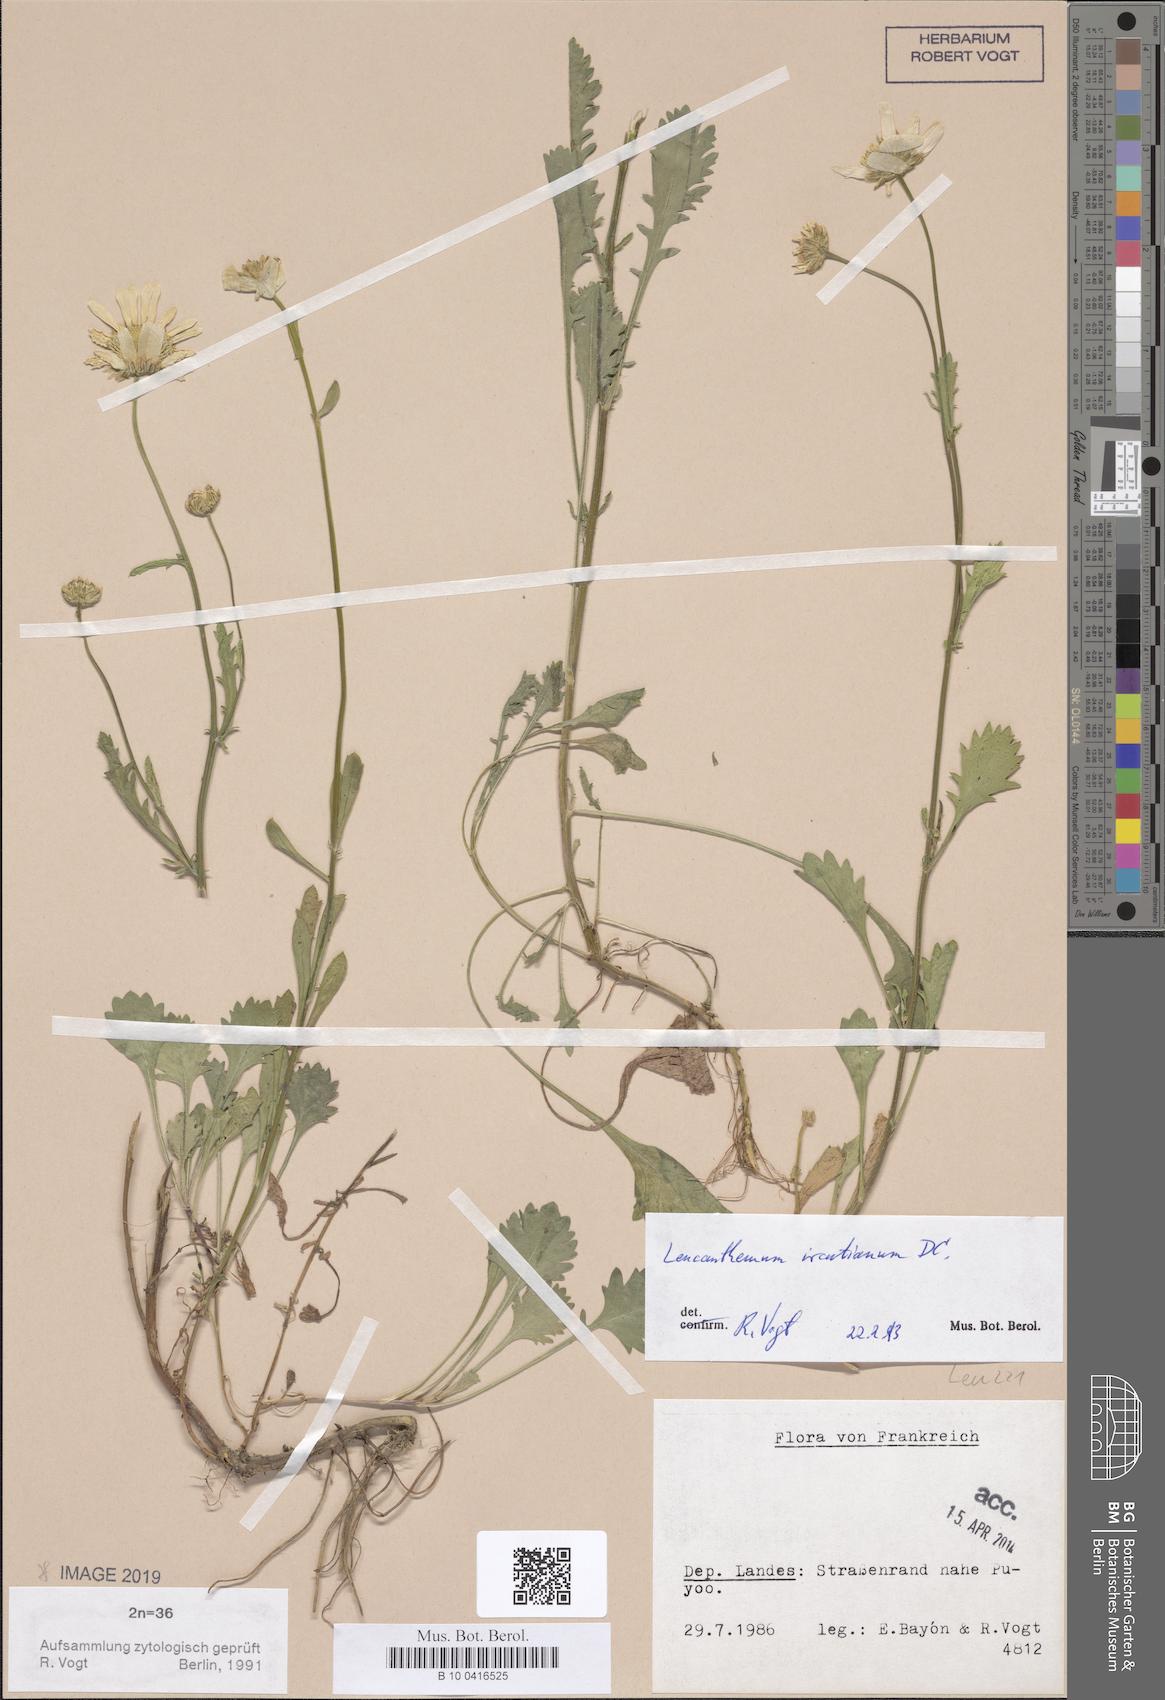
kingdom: Plantae
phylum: Tracheophyta
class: Magnoliopsida
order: Asterales
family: Asteraceae
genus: Leucanthemum
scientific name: Leucanthemum ircutianum
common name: Daisy
